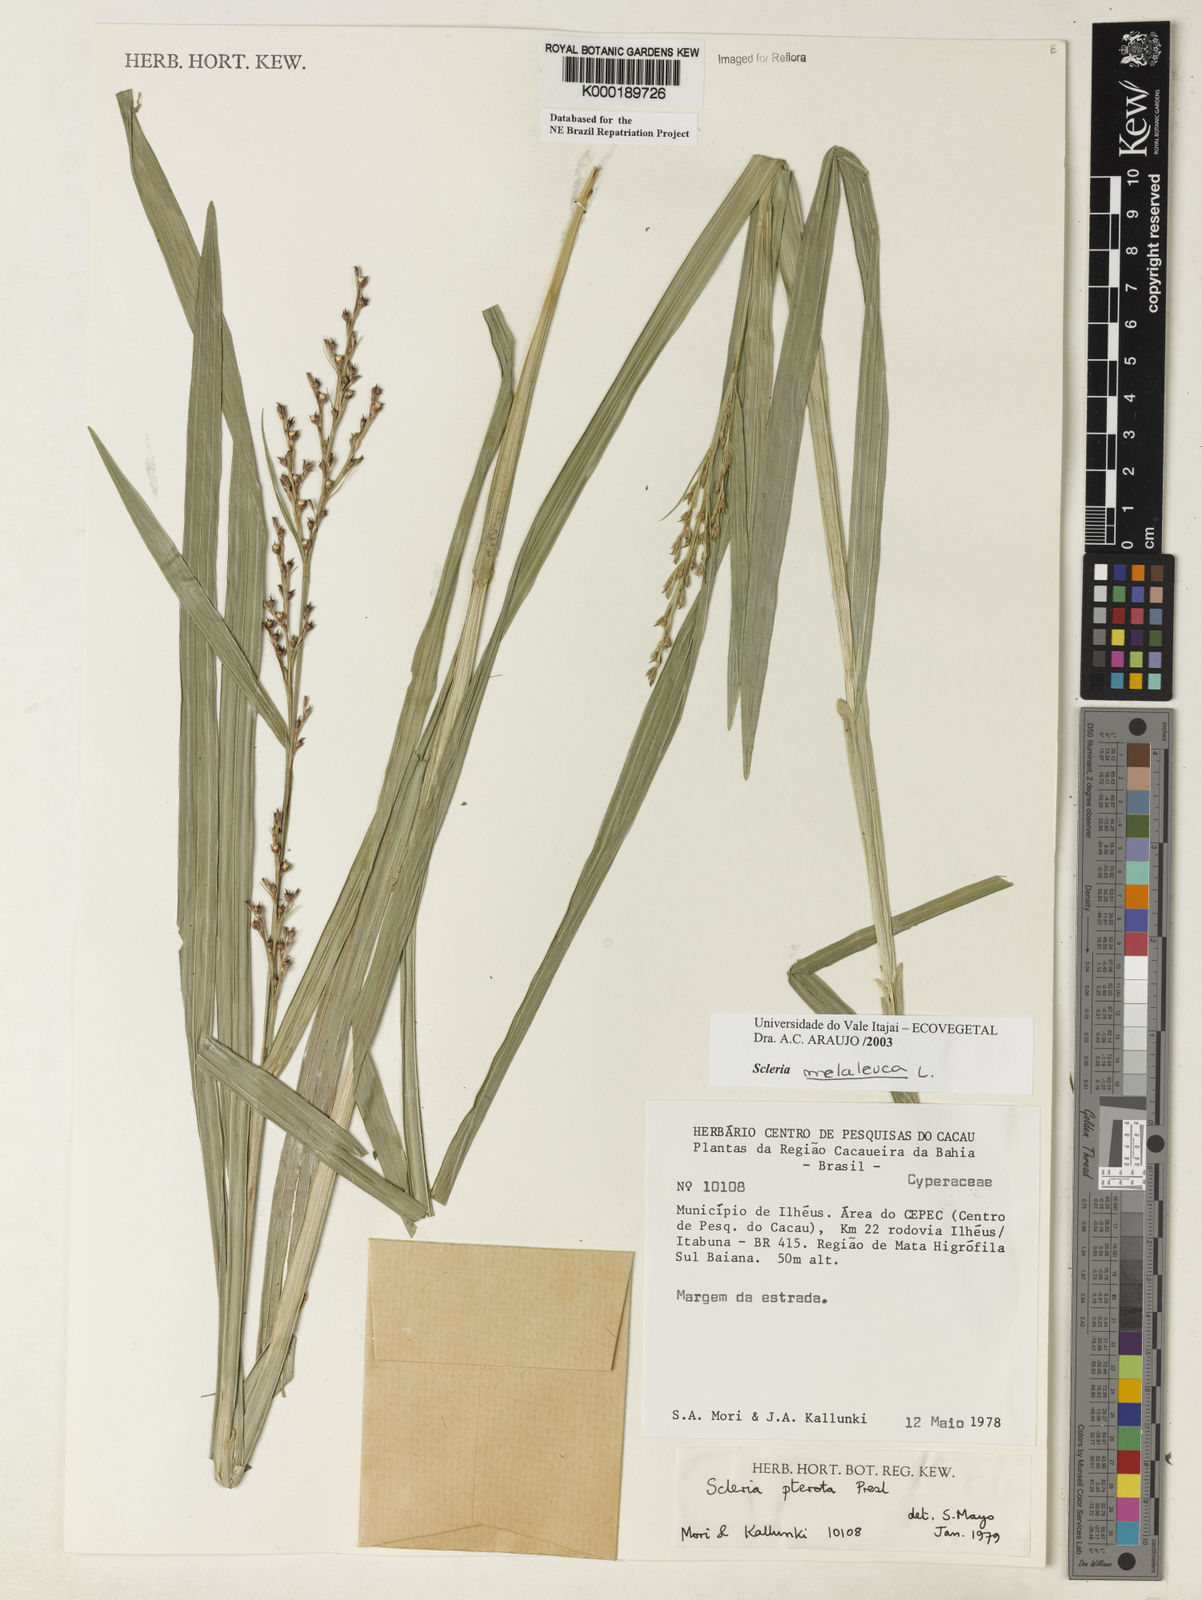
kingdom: Plantae
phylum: Tracheophyta
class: Liliopsida
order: Poales
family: Cyperaceae
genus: Scleria
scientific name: Scleria gaertneri
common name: Cortadera blanca
